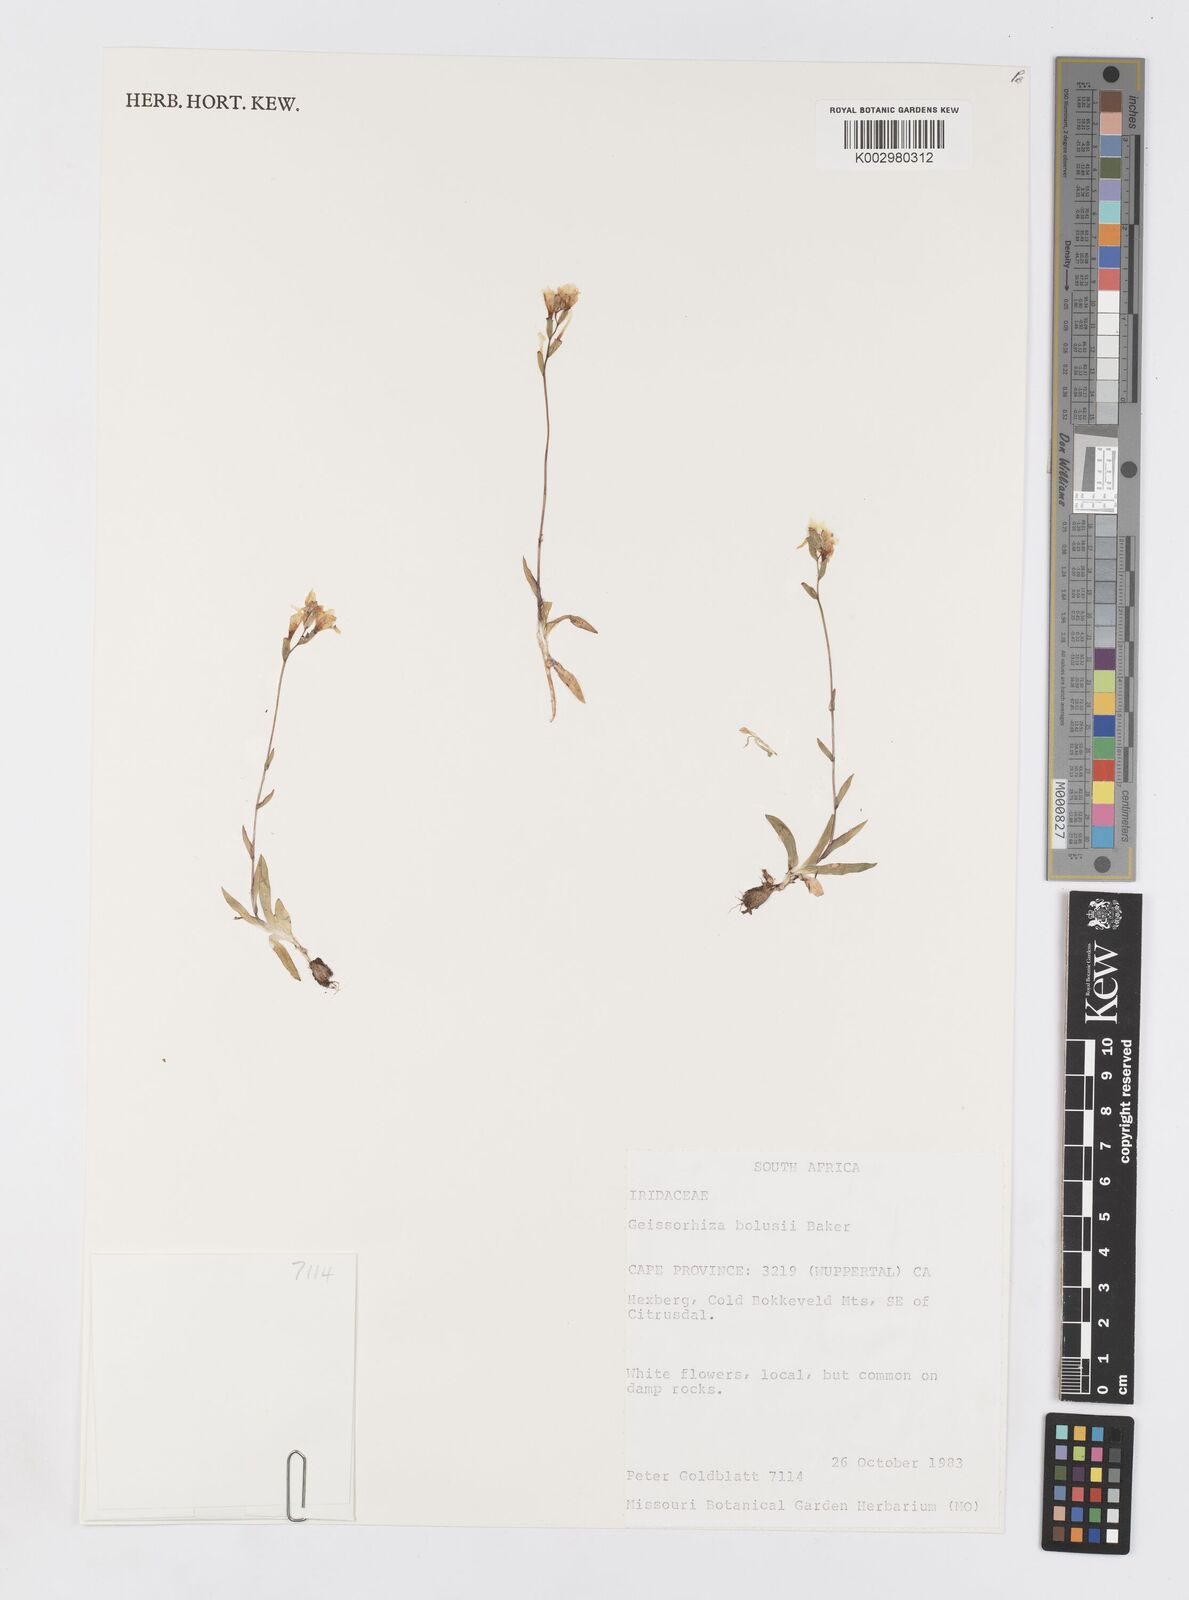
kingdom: Plantae
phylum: Tracheophyta
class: Liliopsida
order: Asparagales
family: Iridaceae
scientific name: Iridaceae
